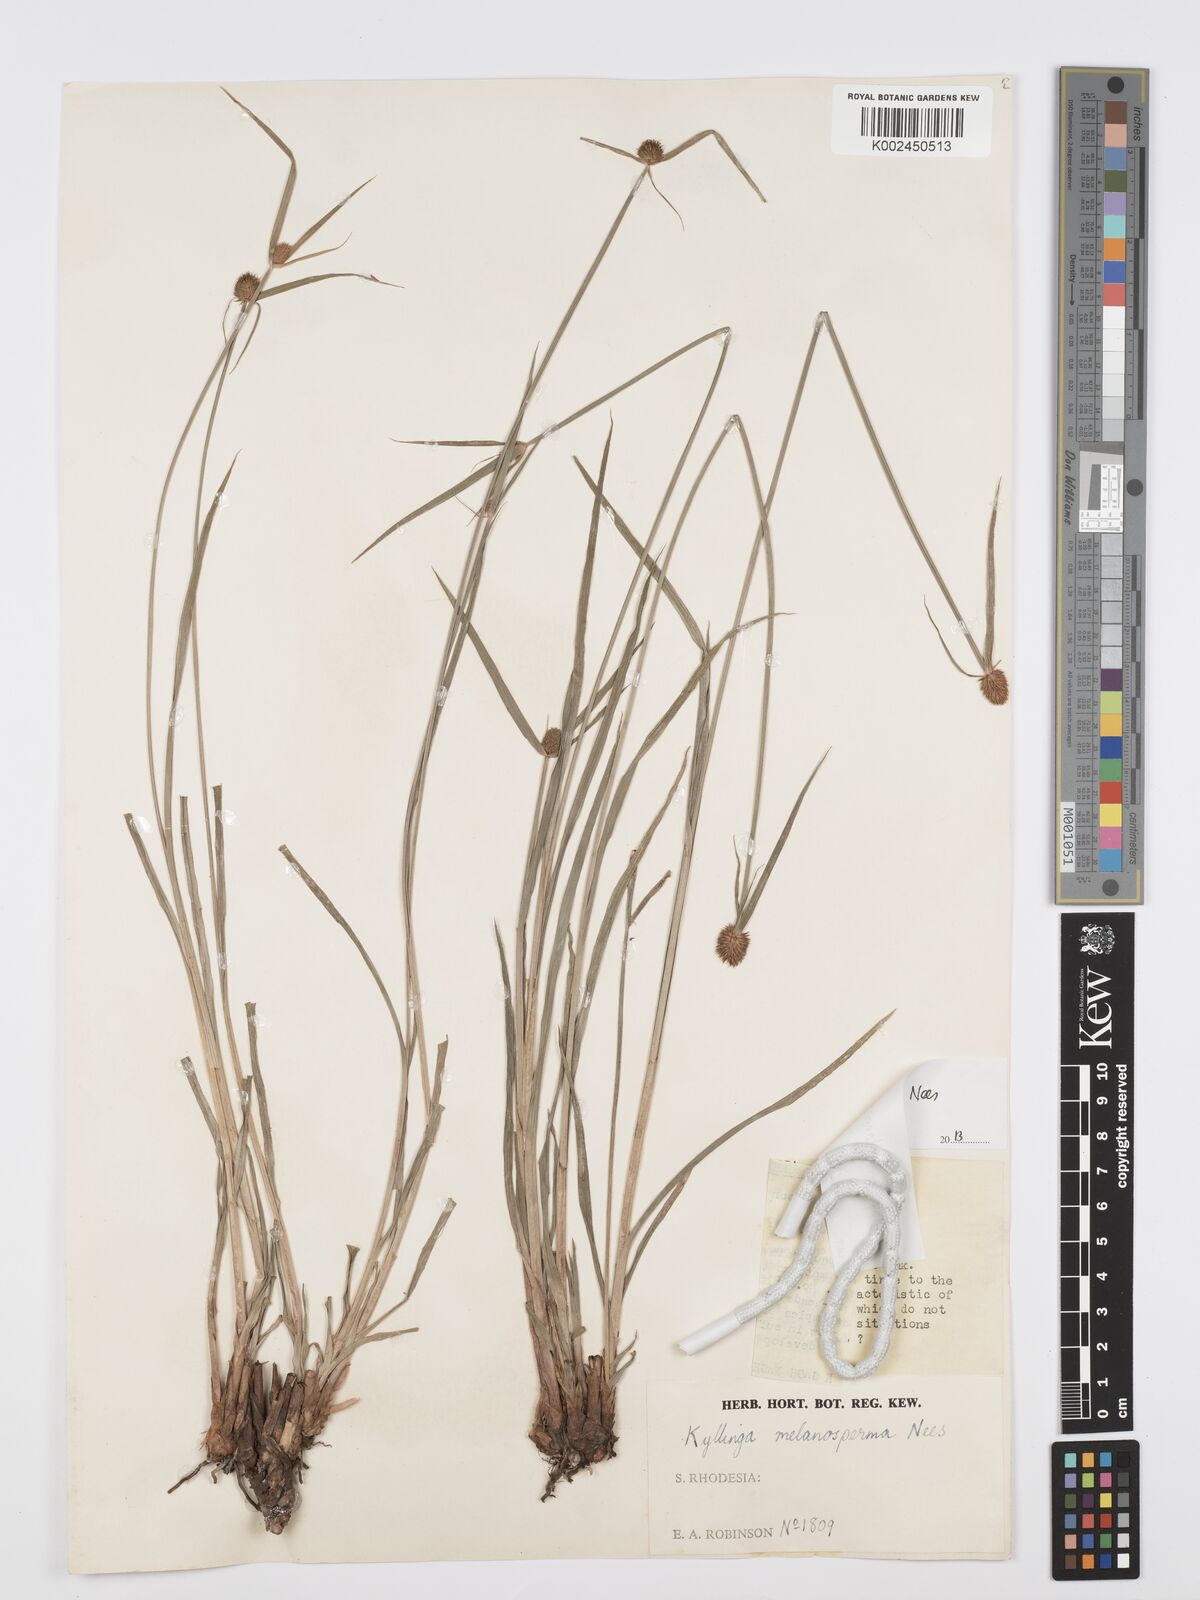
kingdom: Plantae
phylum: Tracheophyta
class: Liliopsida
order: Poales
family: Cyperaceae
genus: Cyperus
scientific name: Cyperus melanospermus
